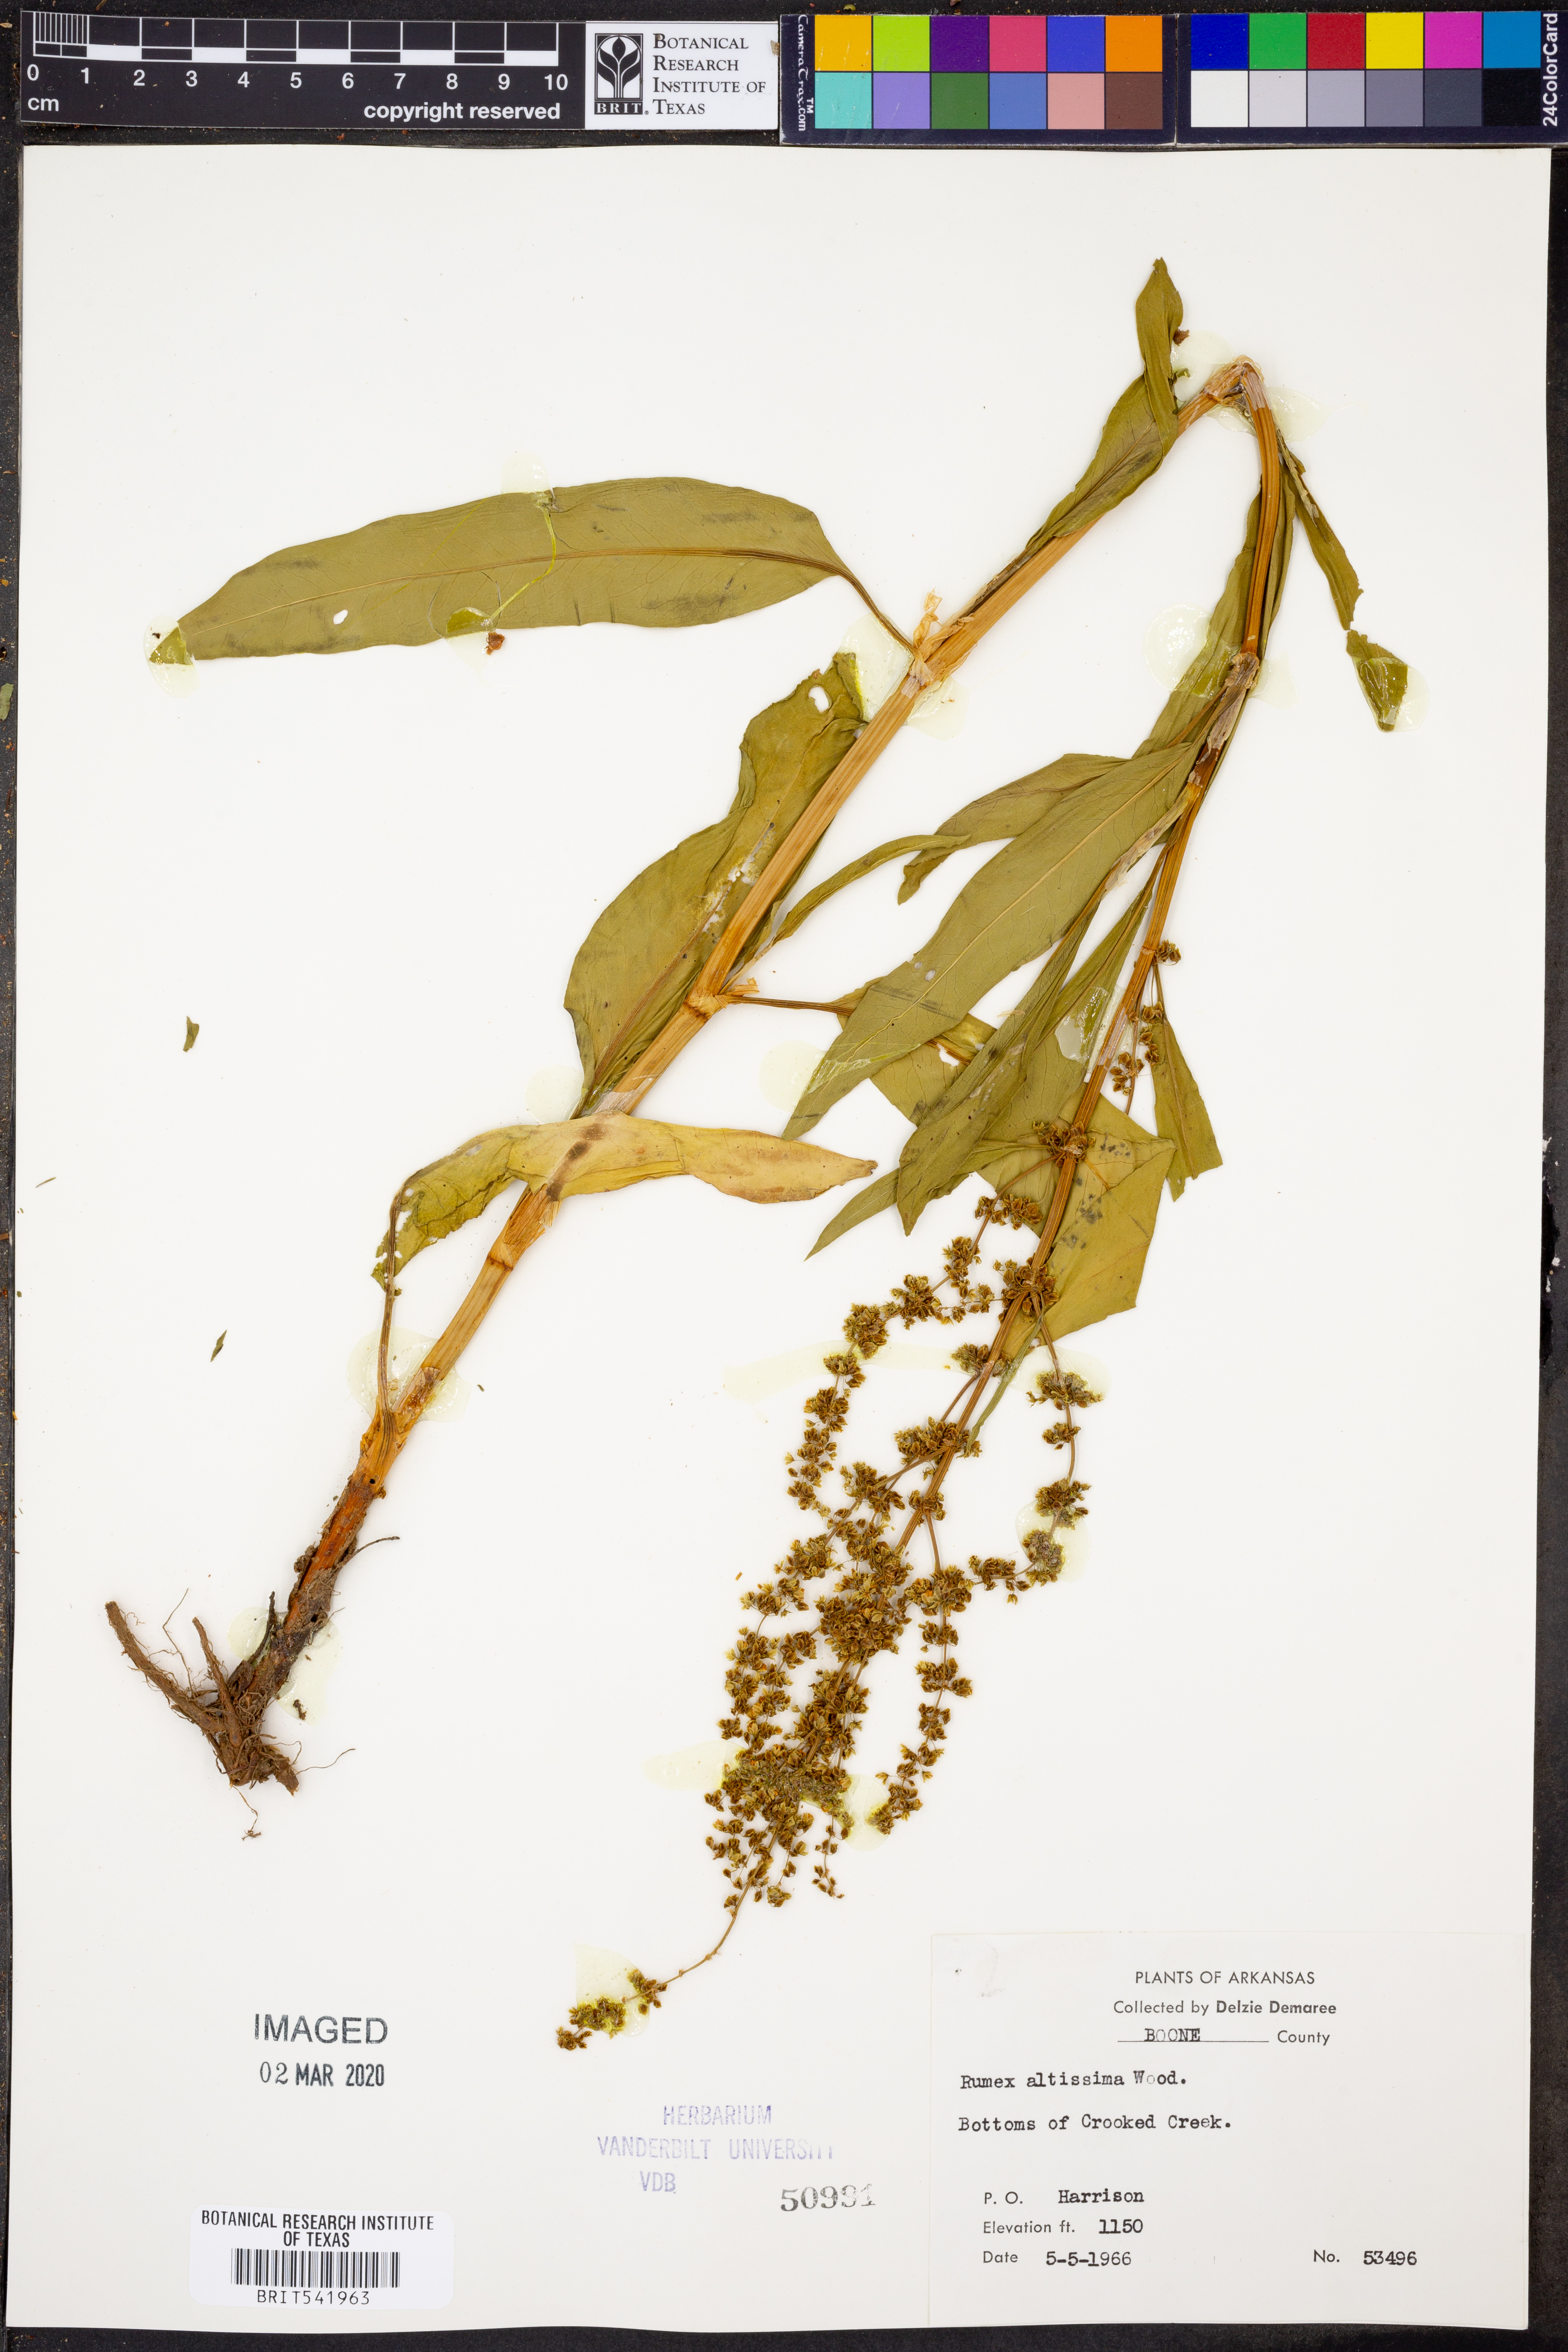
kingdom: Plantae
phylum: Tracheophyta
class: Magnoliopsida
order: Caryophyllales
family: Polygonaceae
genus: Rumex
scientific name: Rumex altissimus
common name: Smooth dock
